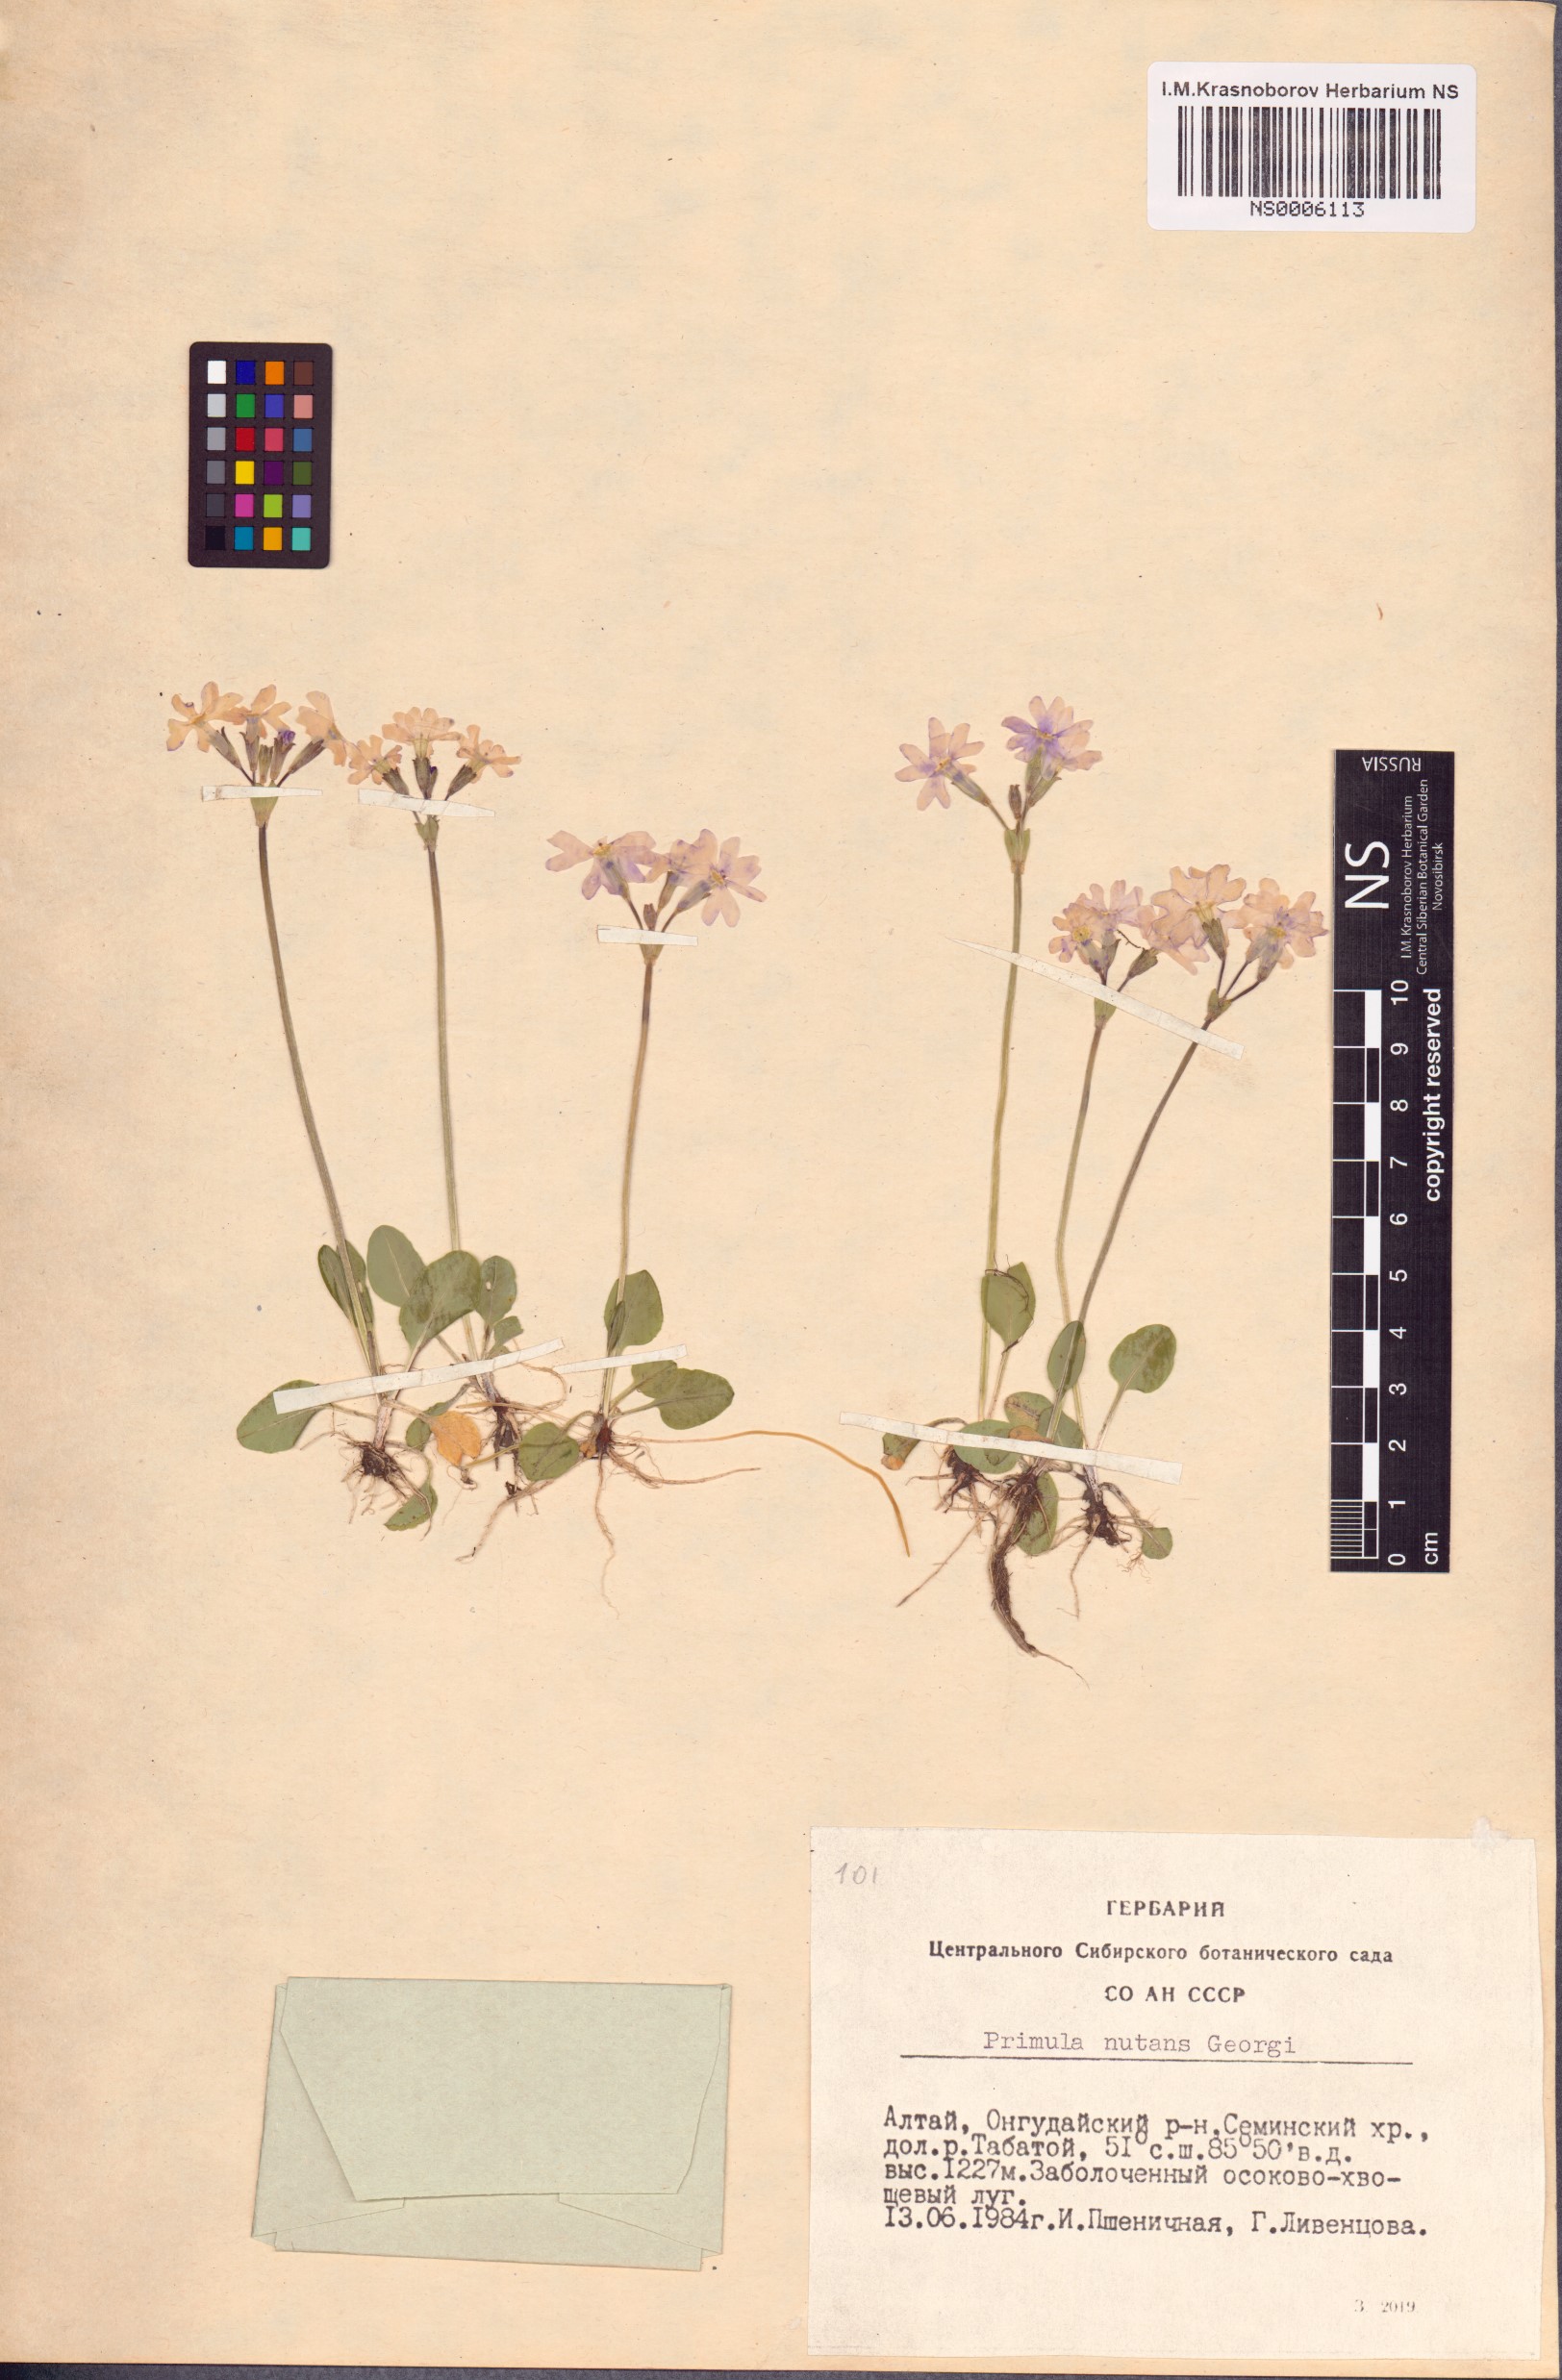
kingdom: Plantae
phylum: Tracheophyta
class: Magnoliopsida
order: Ericales
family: Primulaceae
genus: Primula
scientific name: Primula nutans
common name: Siberian primrose
